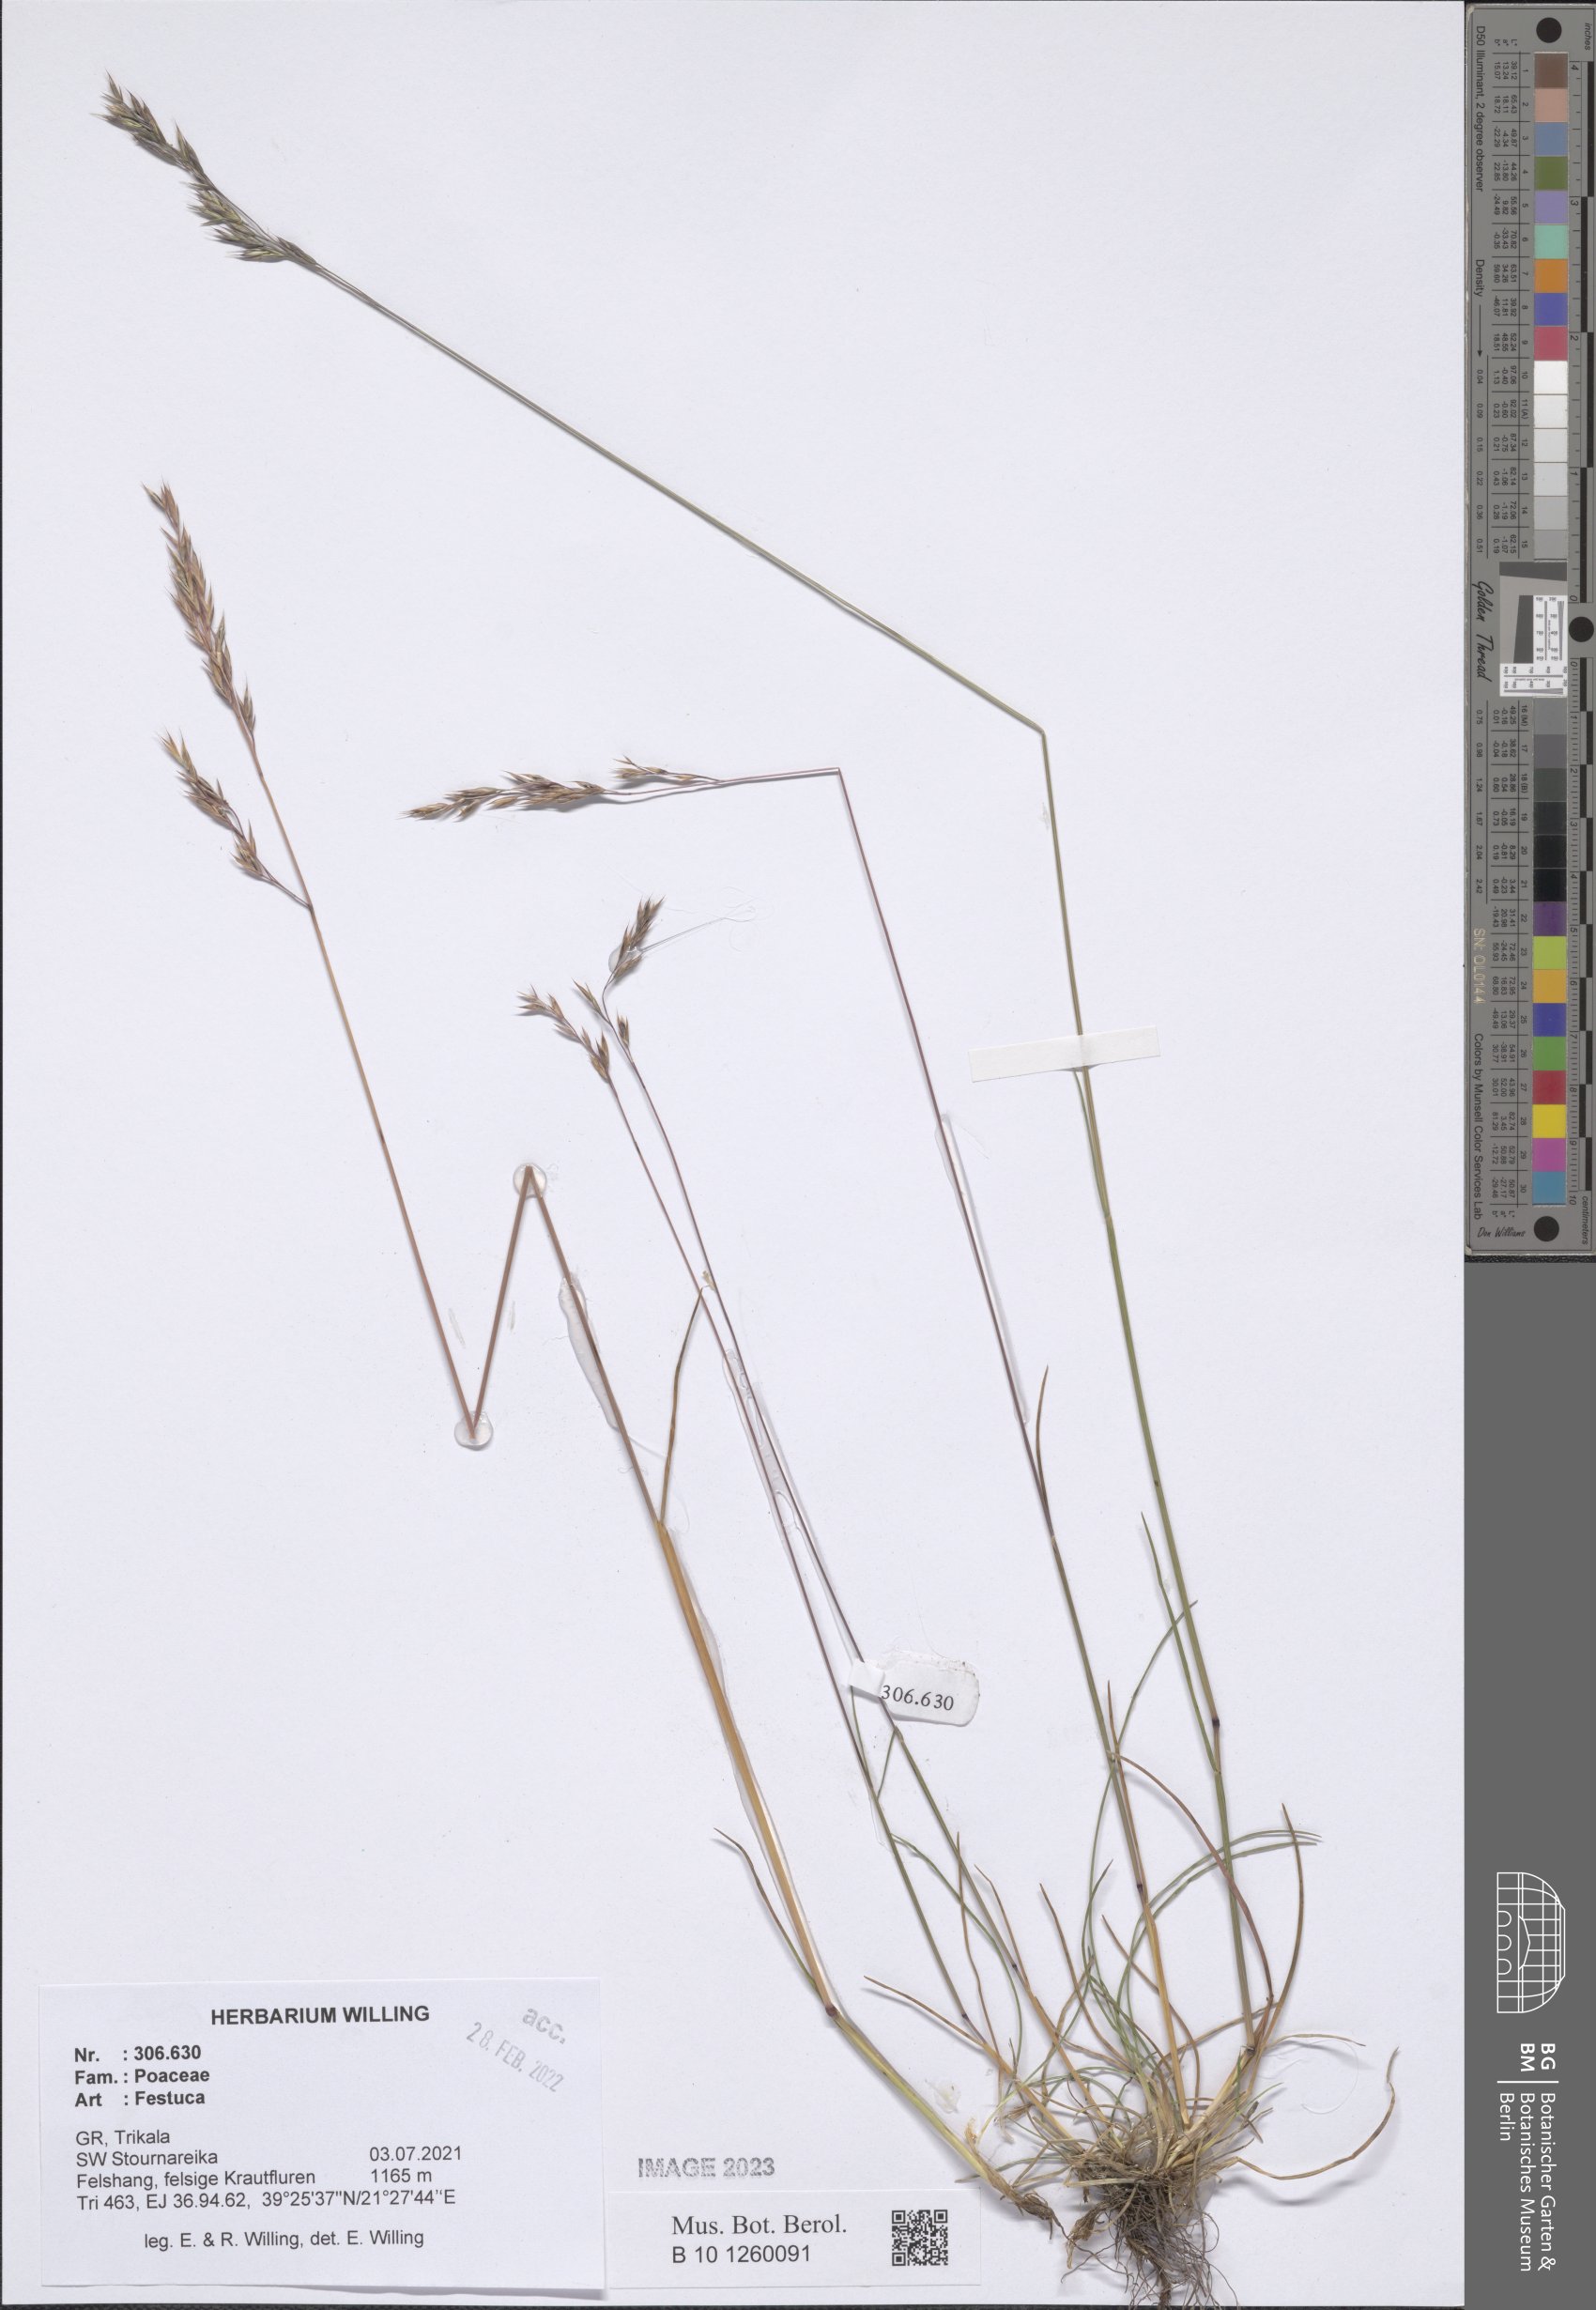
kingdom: Plantae
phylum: Tracheophyta
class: Liliopsida
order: Poales
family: Poaceae
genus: Festuca
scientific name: Festuca
